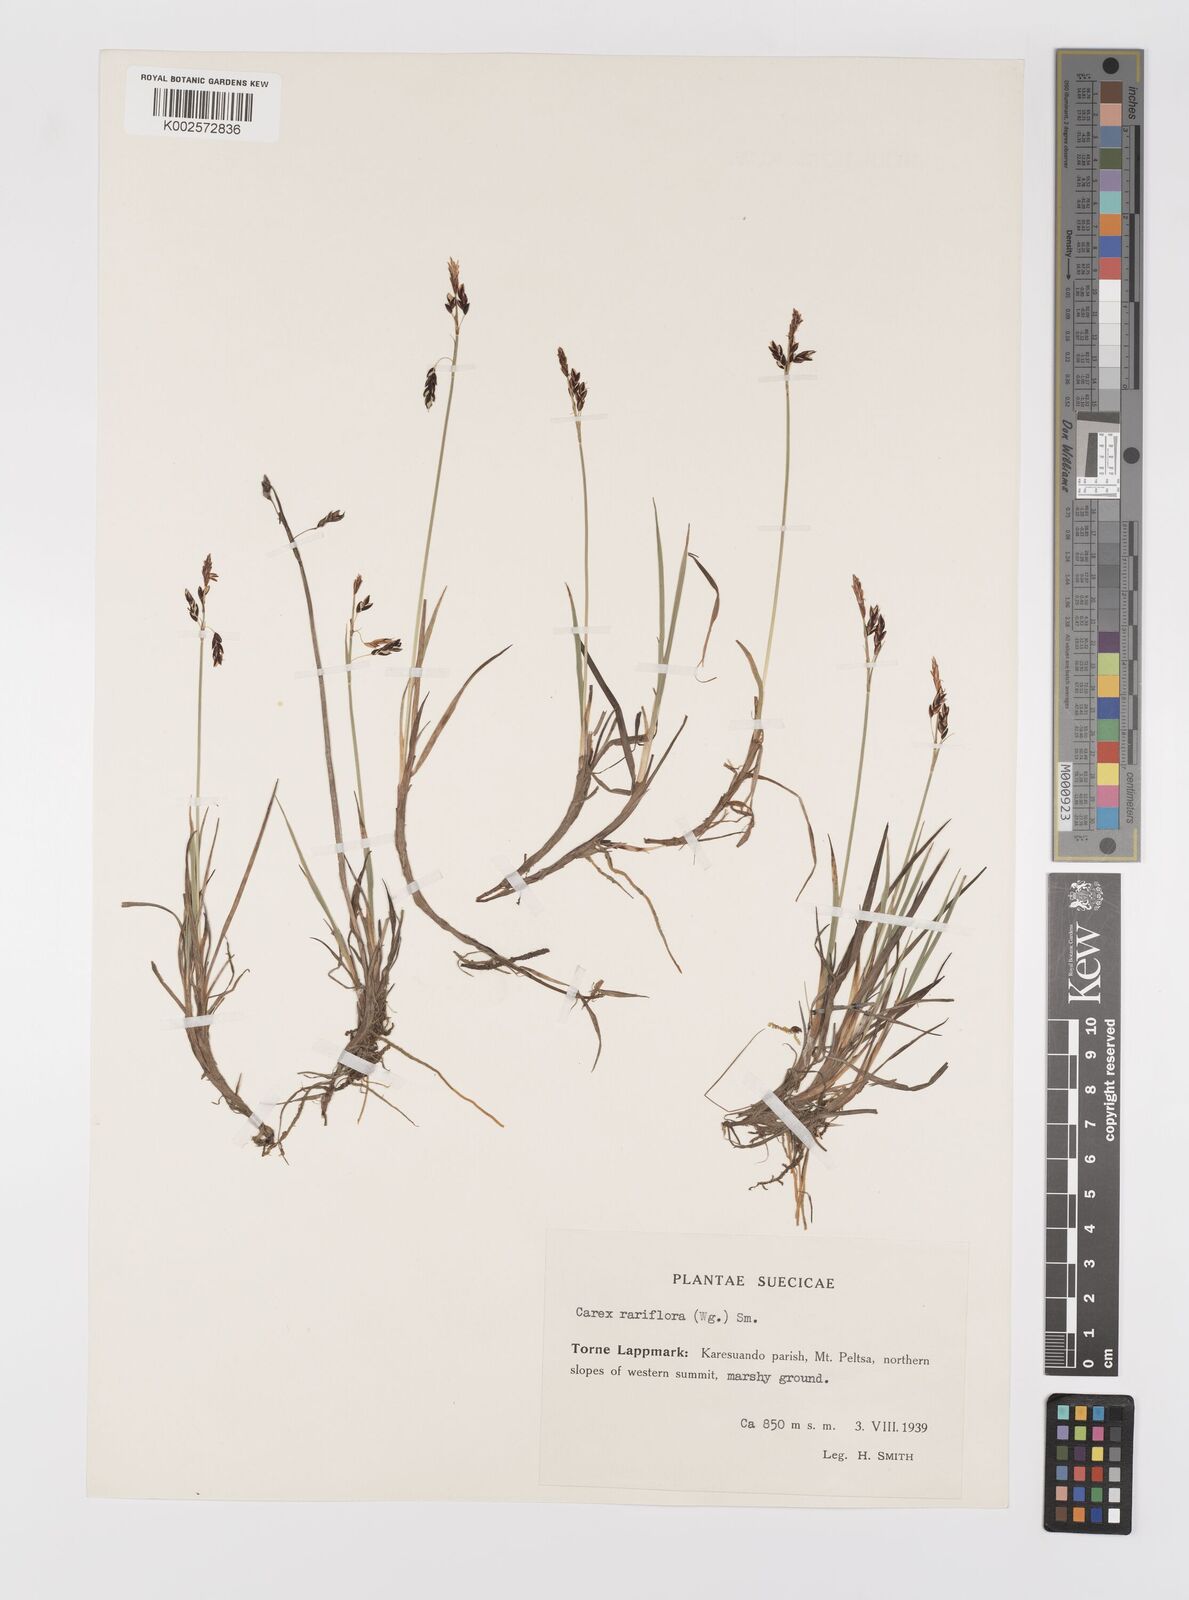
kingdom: Plantae
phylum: Tracheophyta
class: Liliopsida
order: Poales
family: Cyperaceae
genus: Carex
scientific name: Carex rariflora
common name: Loose-flowered alpine sedge
